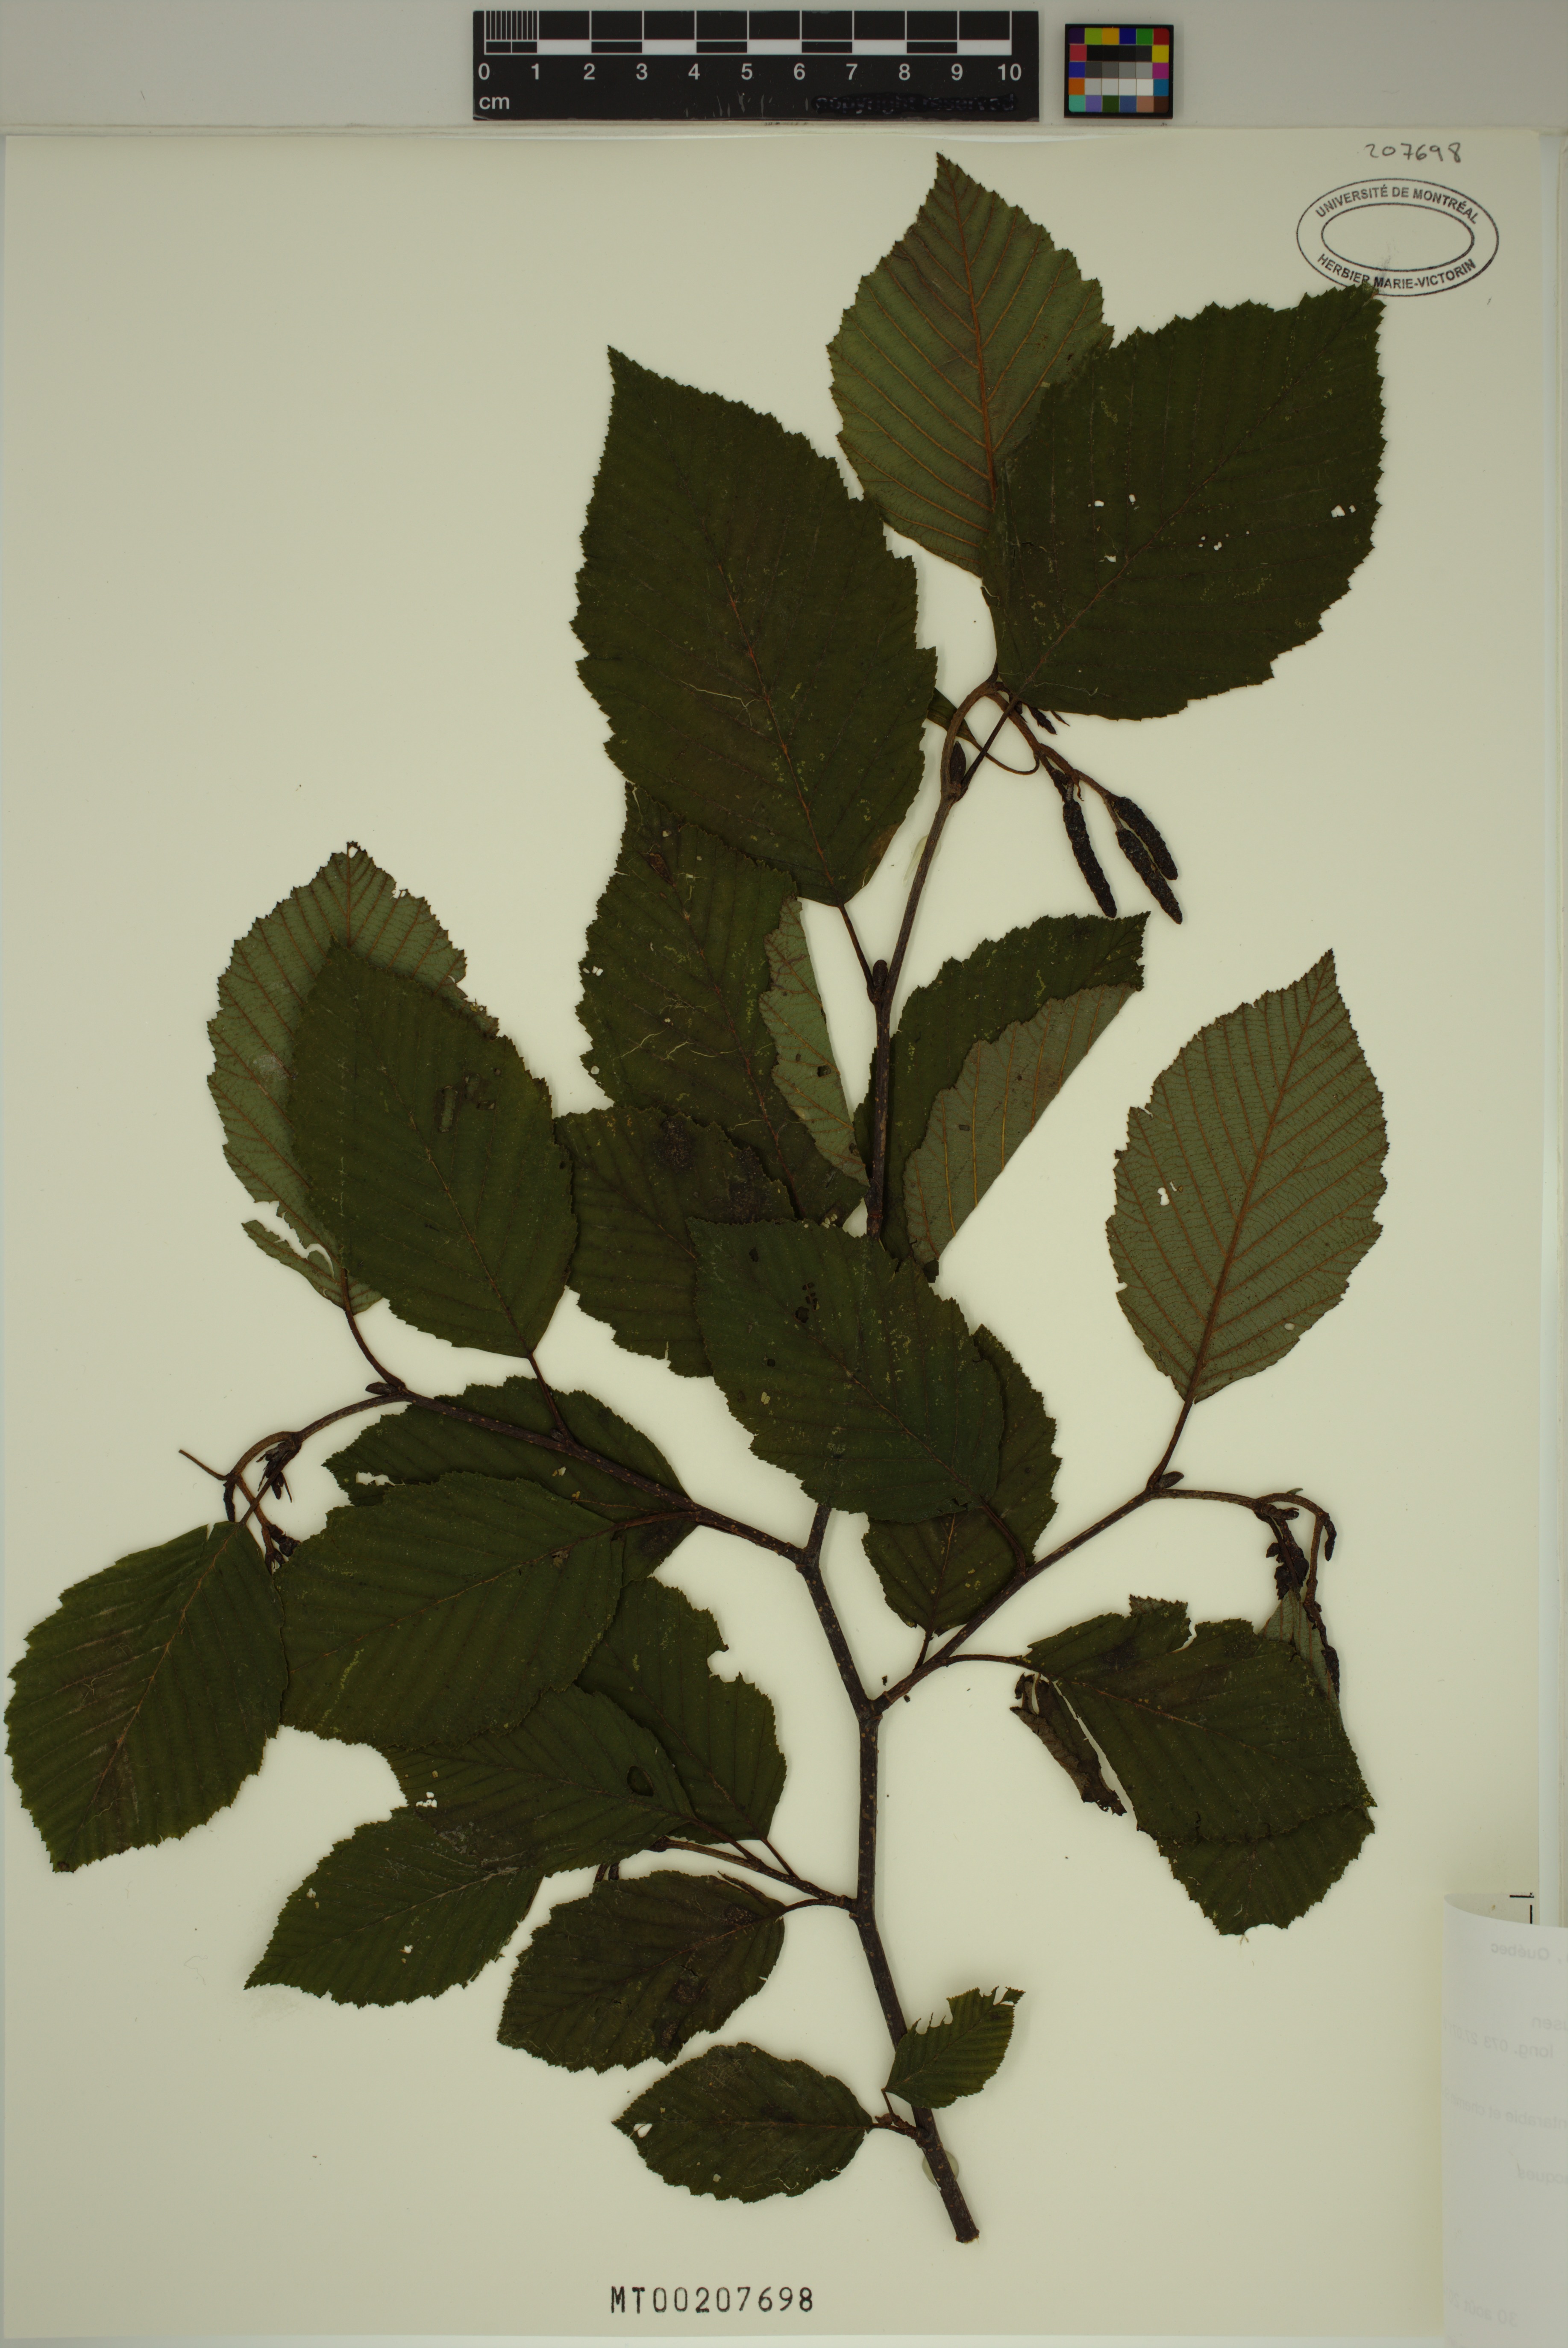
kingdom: Plantae
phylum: Tracheophyta
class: Magnoliopsida
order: Fagales
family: Betulaceae
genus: Alnus
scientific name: Alnus incana
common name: Grey alder
